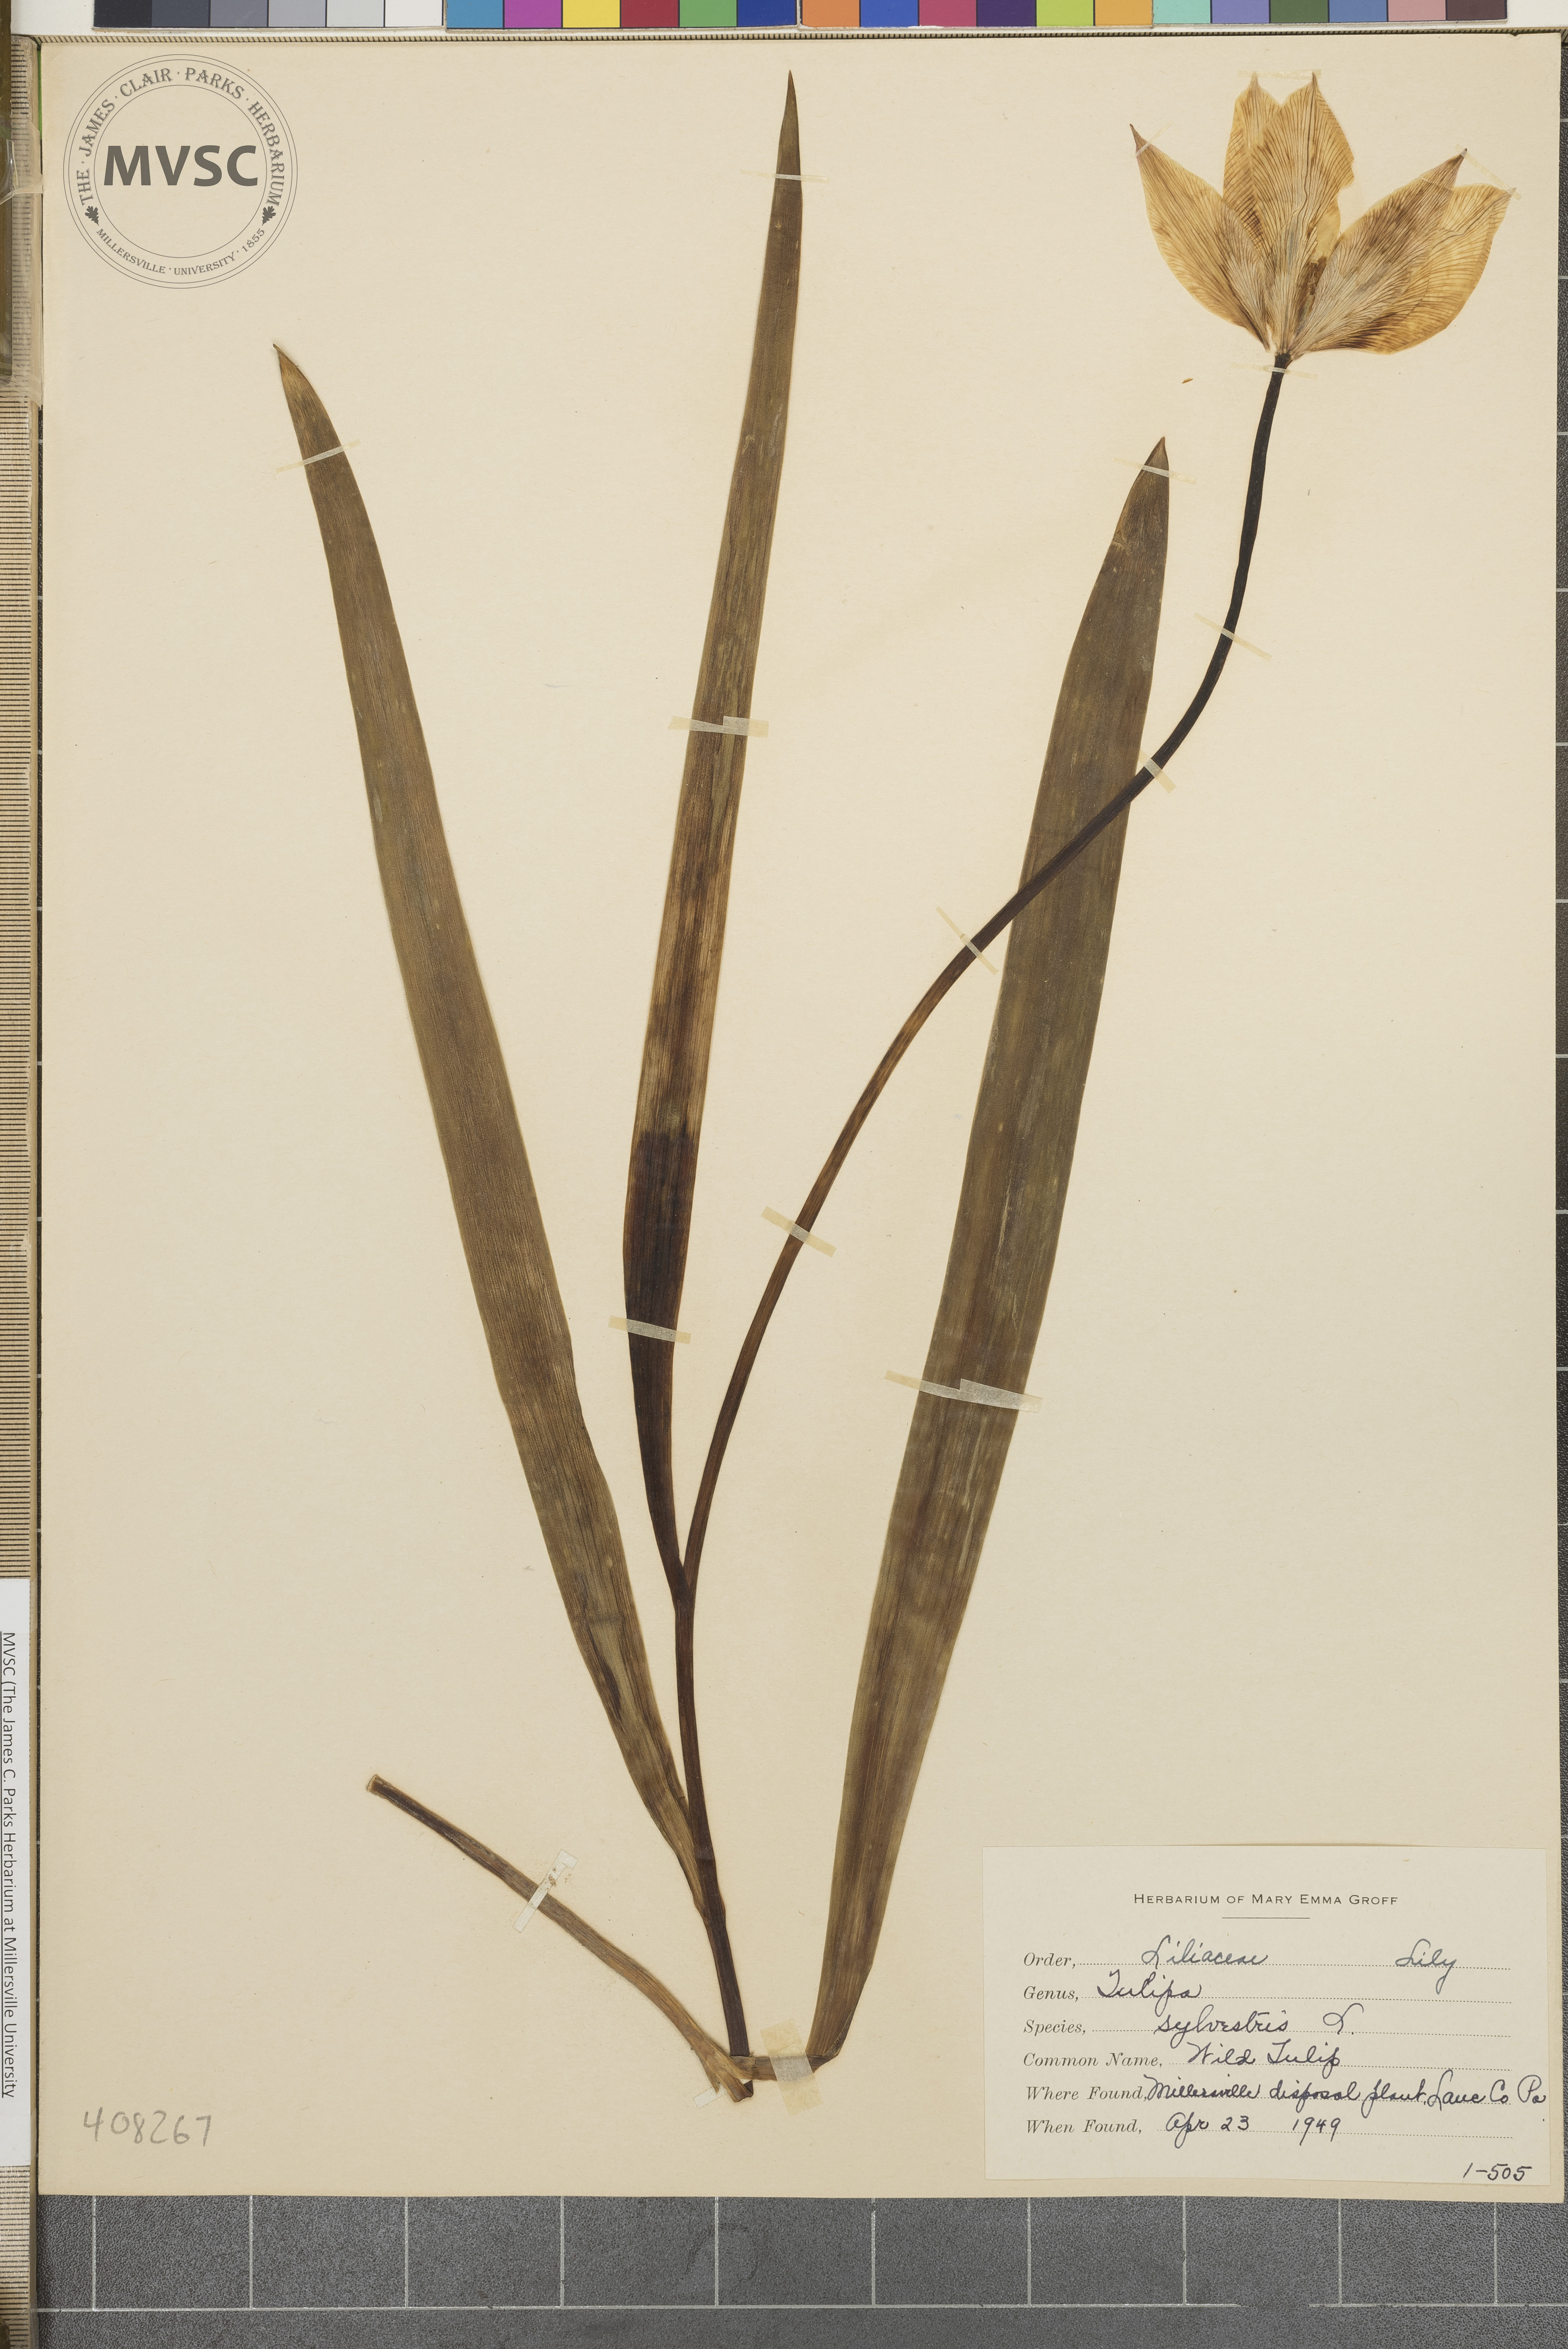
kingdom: Plantae
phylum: Tracheophyta
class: Liliopsida
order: Liliales
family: Liliaceae
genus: Tulipa
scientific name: Tulipa sylvestris
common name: Wild Tulip
